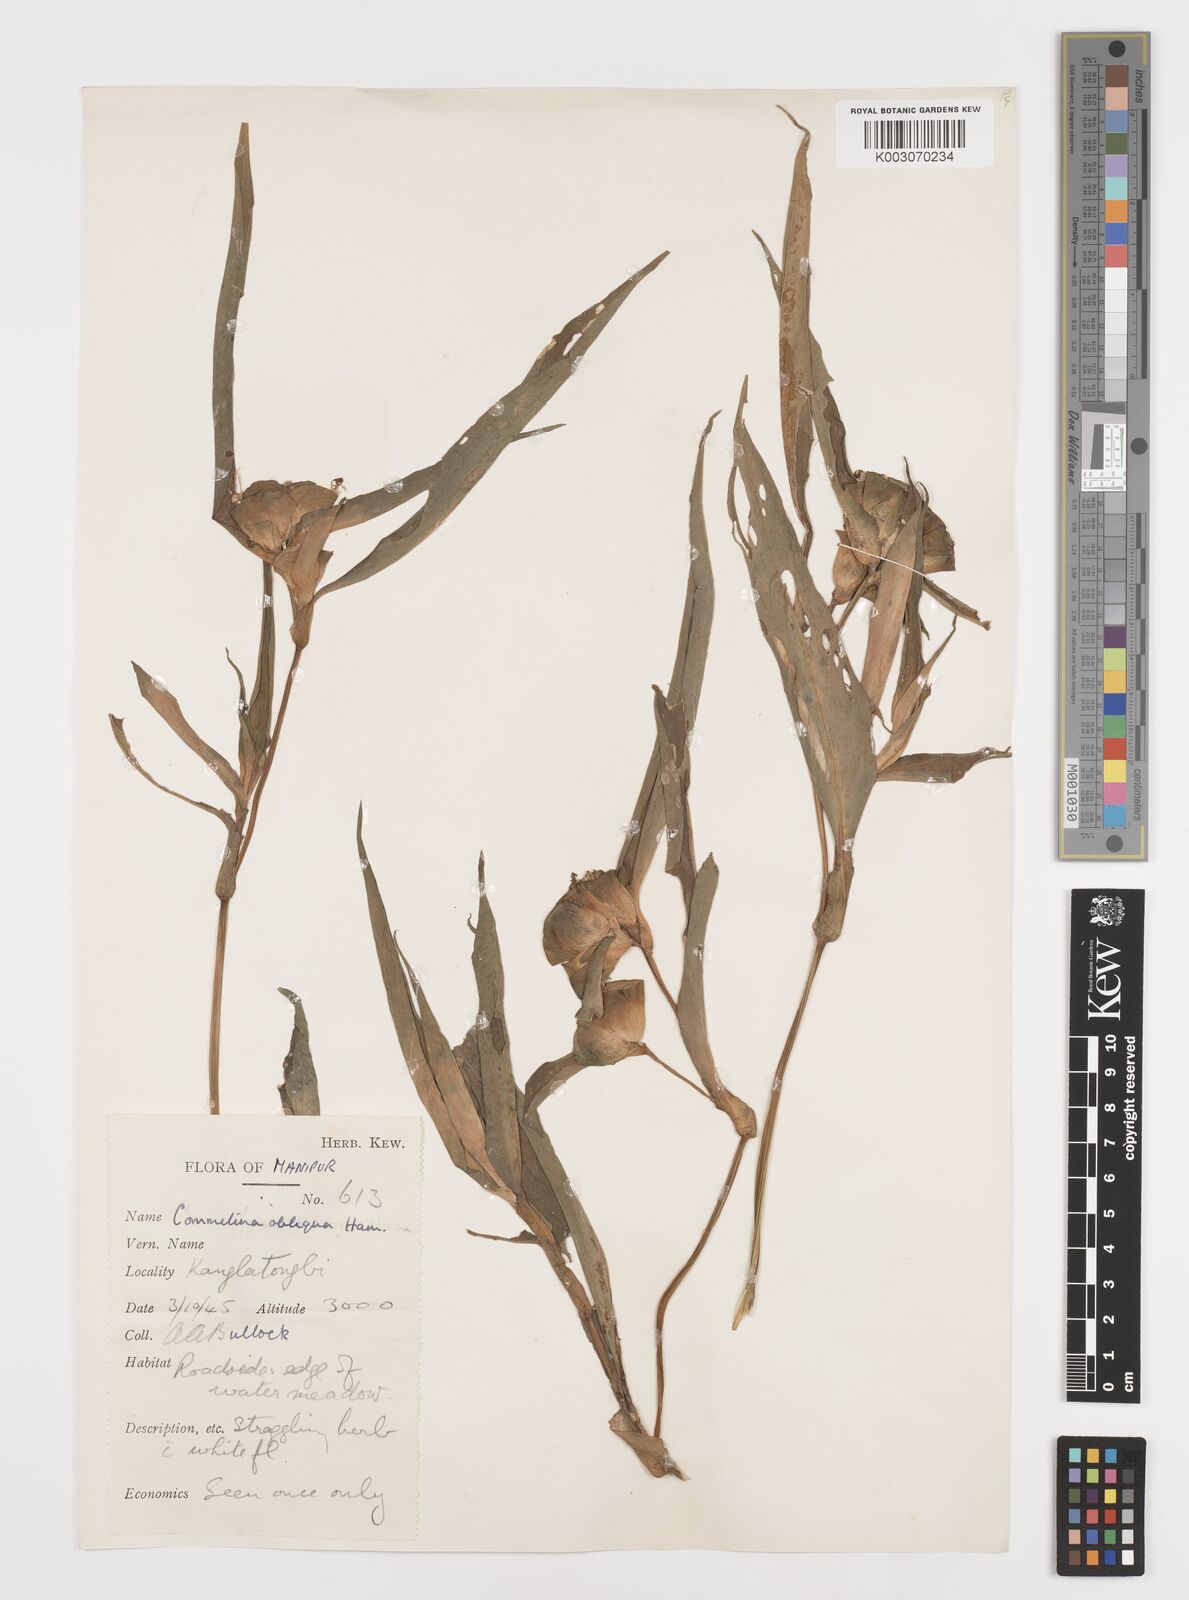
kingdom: Plantae
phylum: Tracheophyta
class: Liliopsida
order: Commelinales
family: Commelinaceae
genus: Commelina
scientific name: Commelina paludosa
